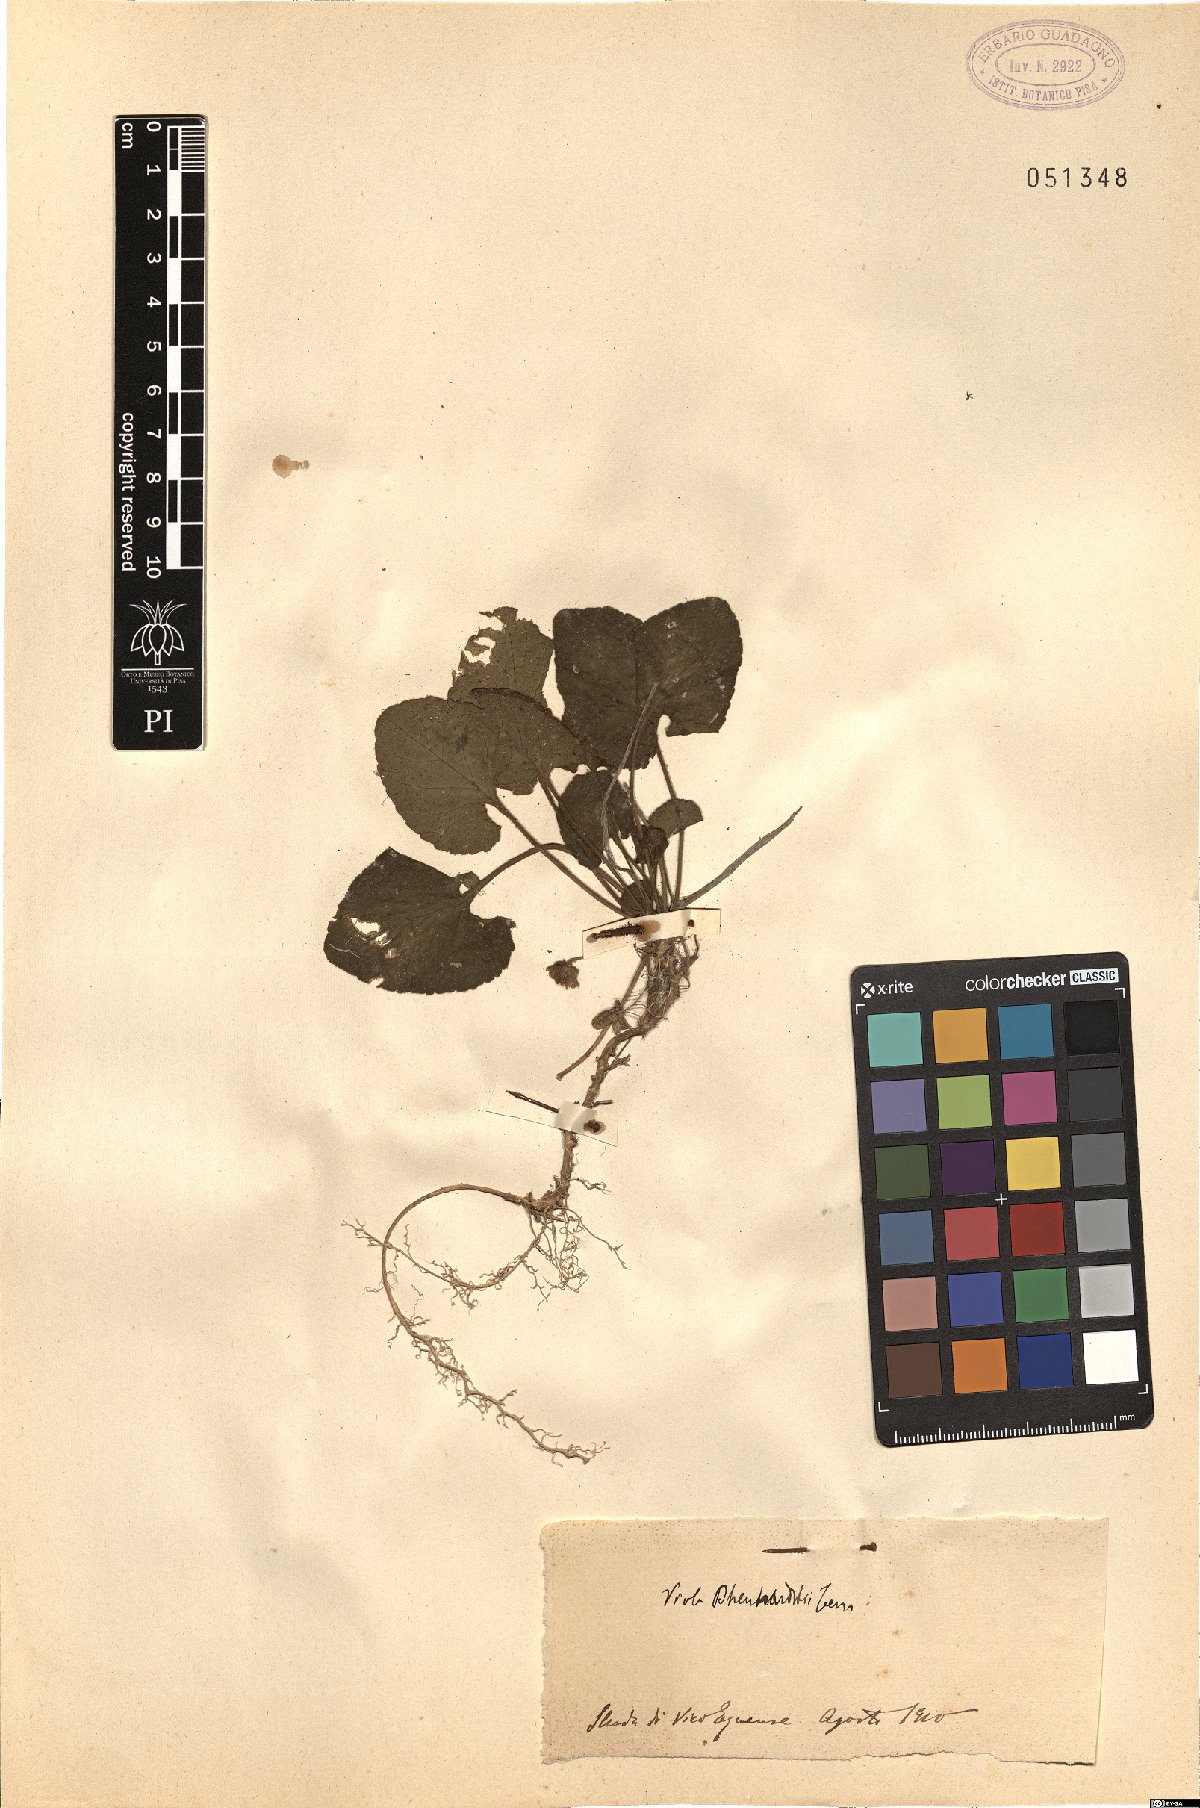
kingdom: Plantae
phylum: Tracheophyta
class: Magnoliopsida
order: Malpighiales
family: Violaceae
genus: Viola
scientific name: Viola alba
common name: White violet
